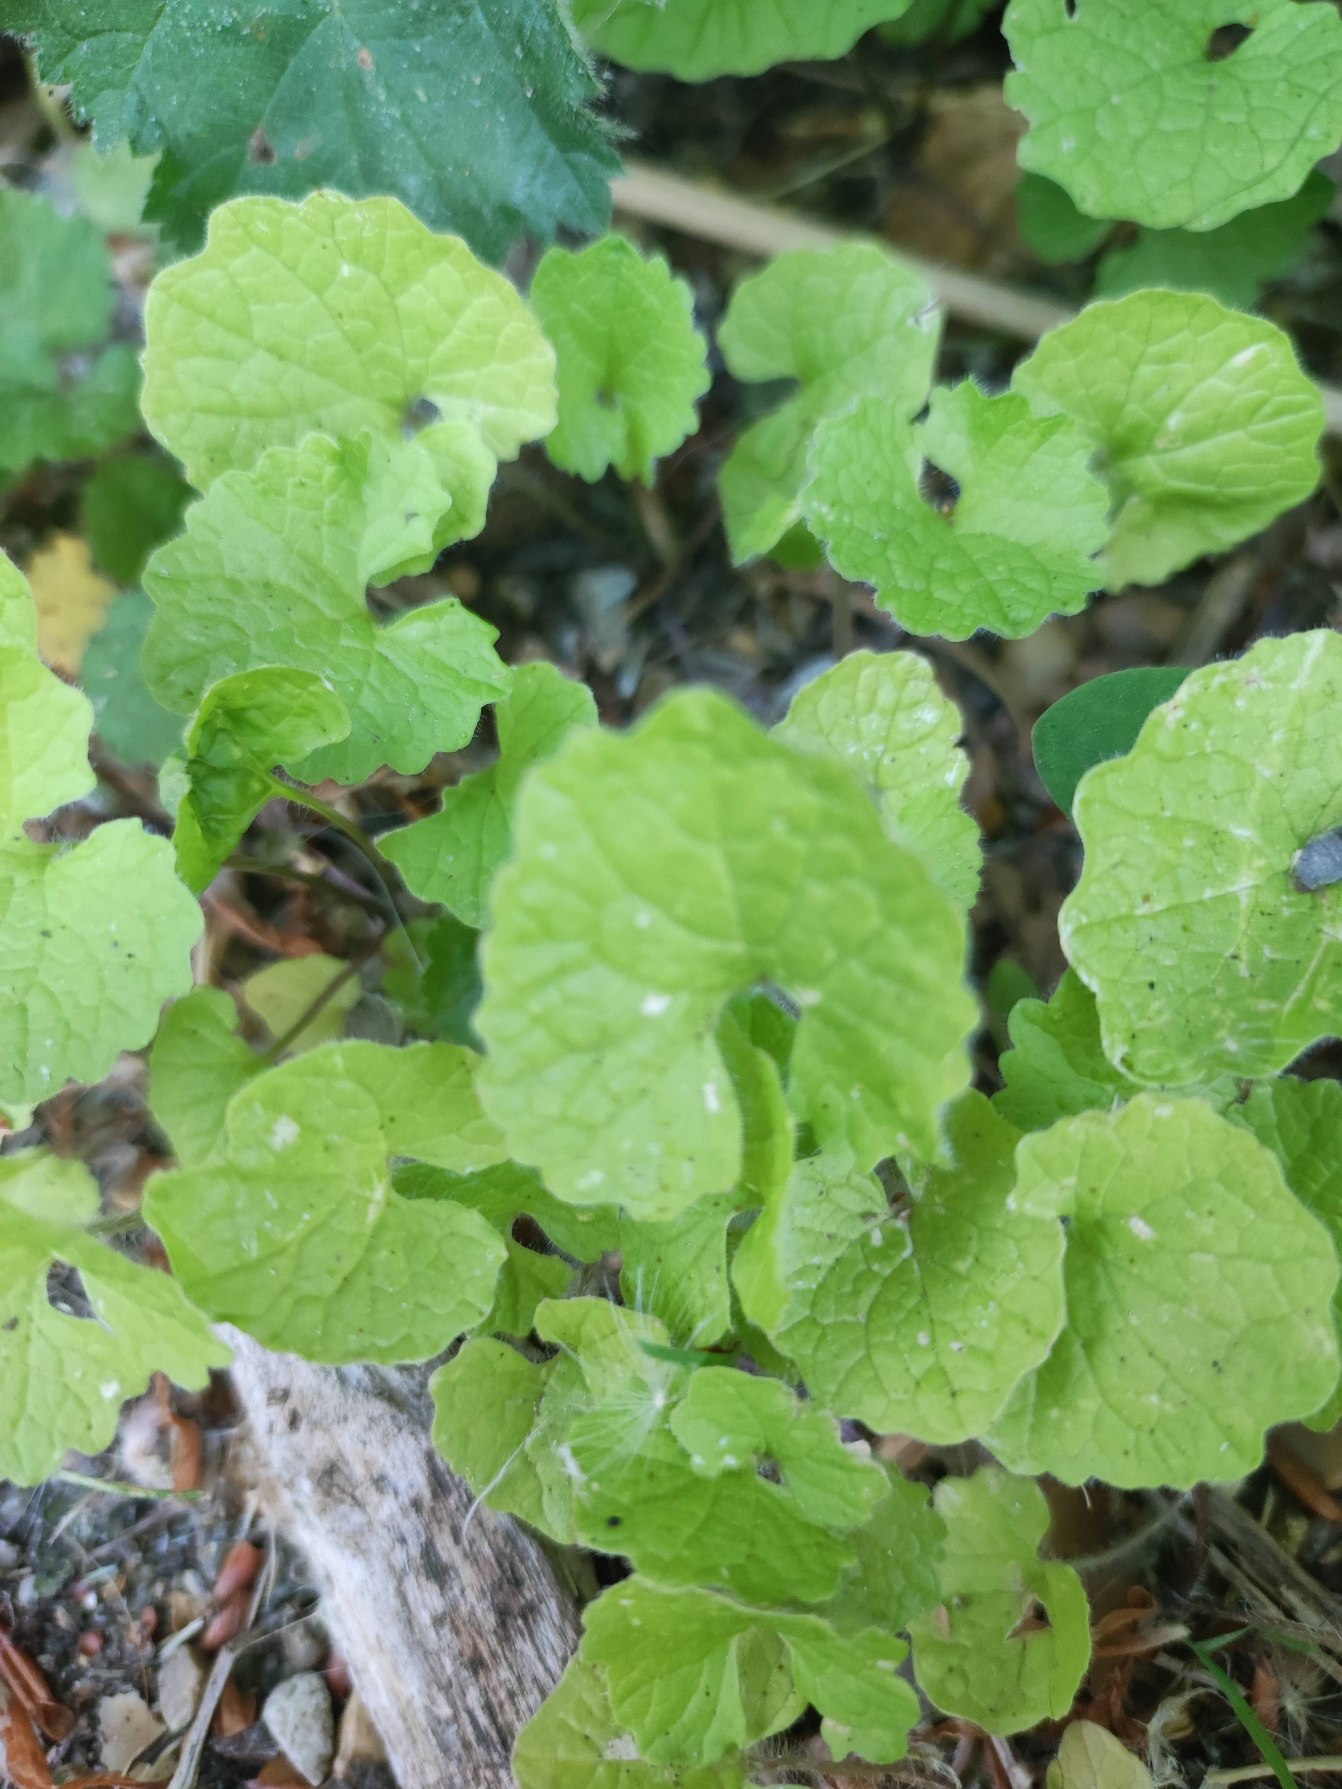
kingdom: Plantae
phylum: Tracheophyta
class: Magnoliopsida
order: Brassicales
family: Brassicaceae
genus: Alliaria
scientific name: Alliaria petiolata
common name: Løgkarse
